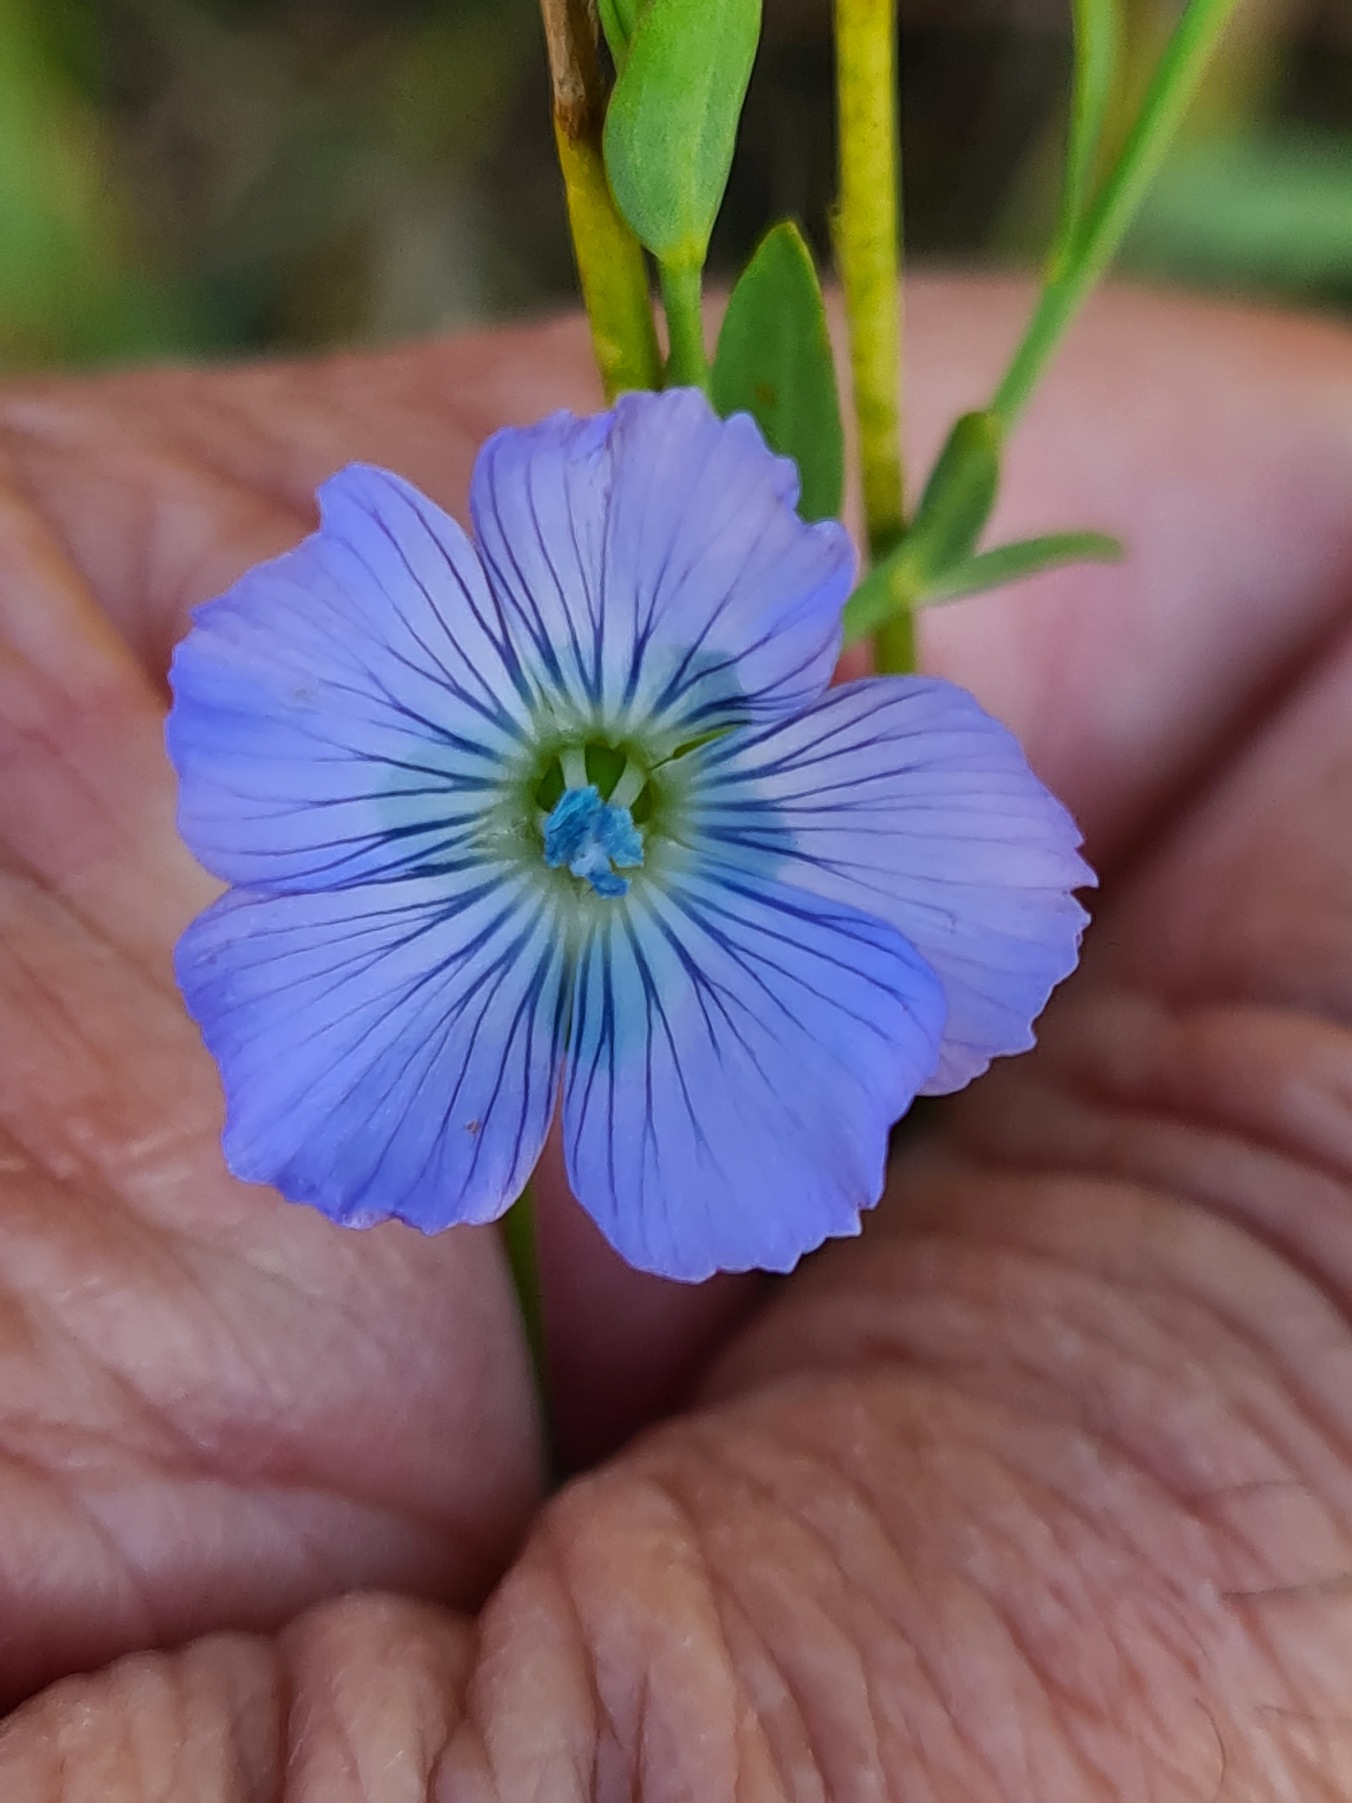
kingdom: Plantae
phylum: Tracheophyta
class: Magnoliopsida
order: Malpighiales
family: Linaceae
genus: Linum
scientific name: Linum
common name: Hørslægten
